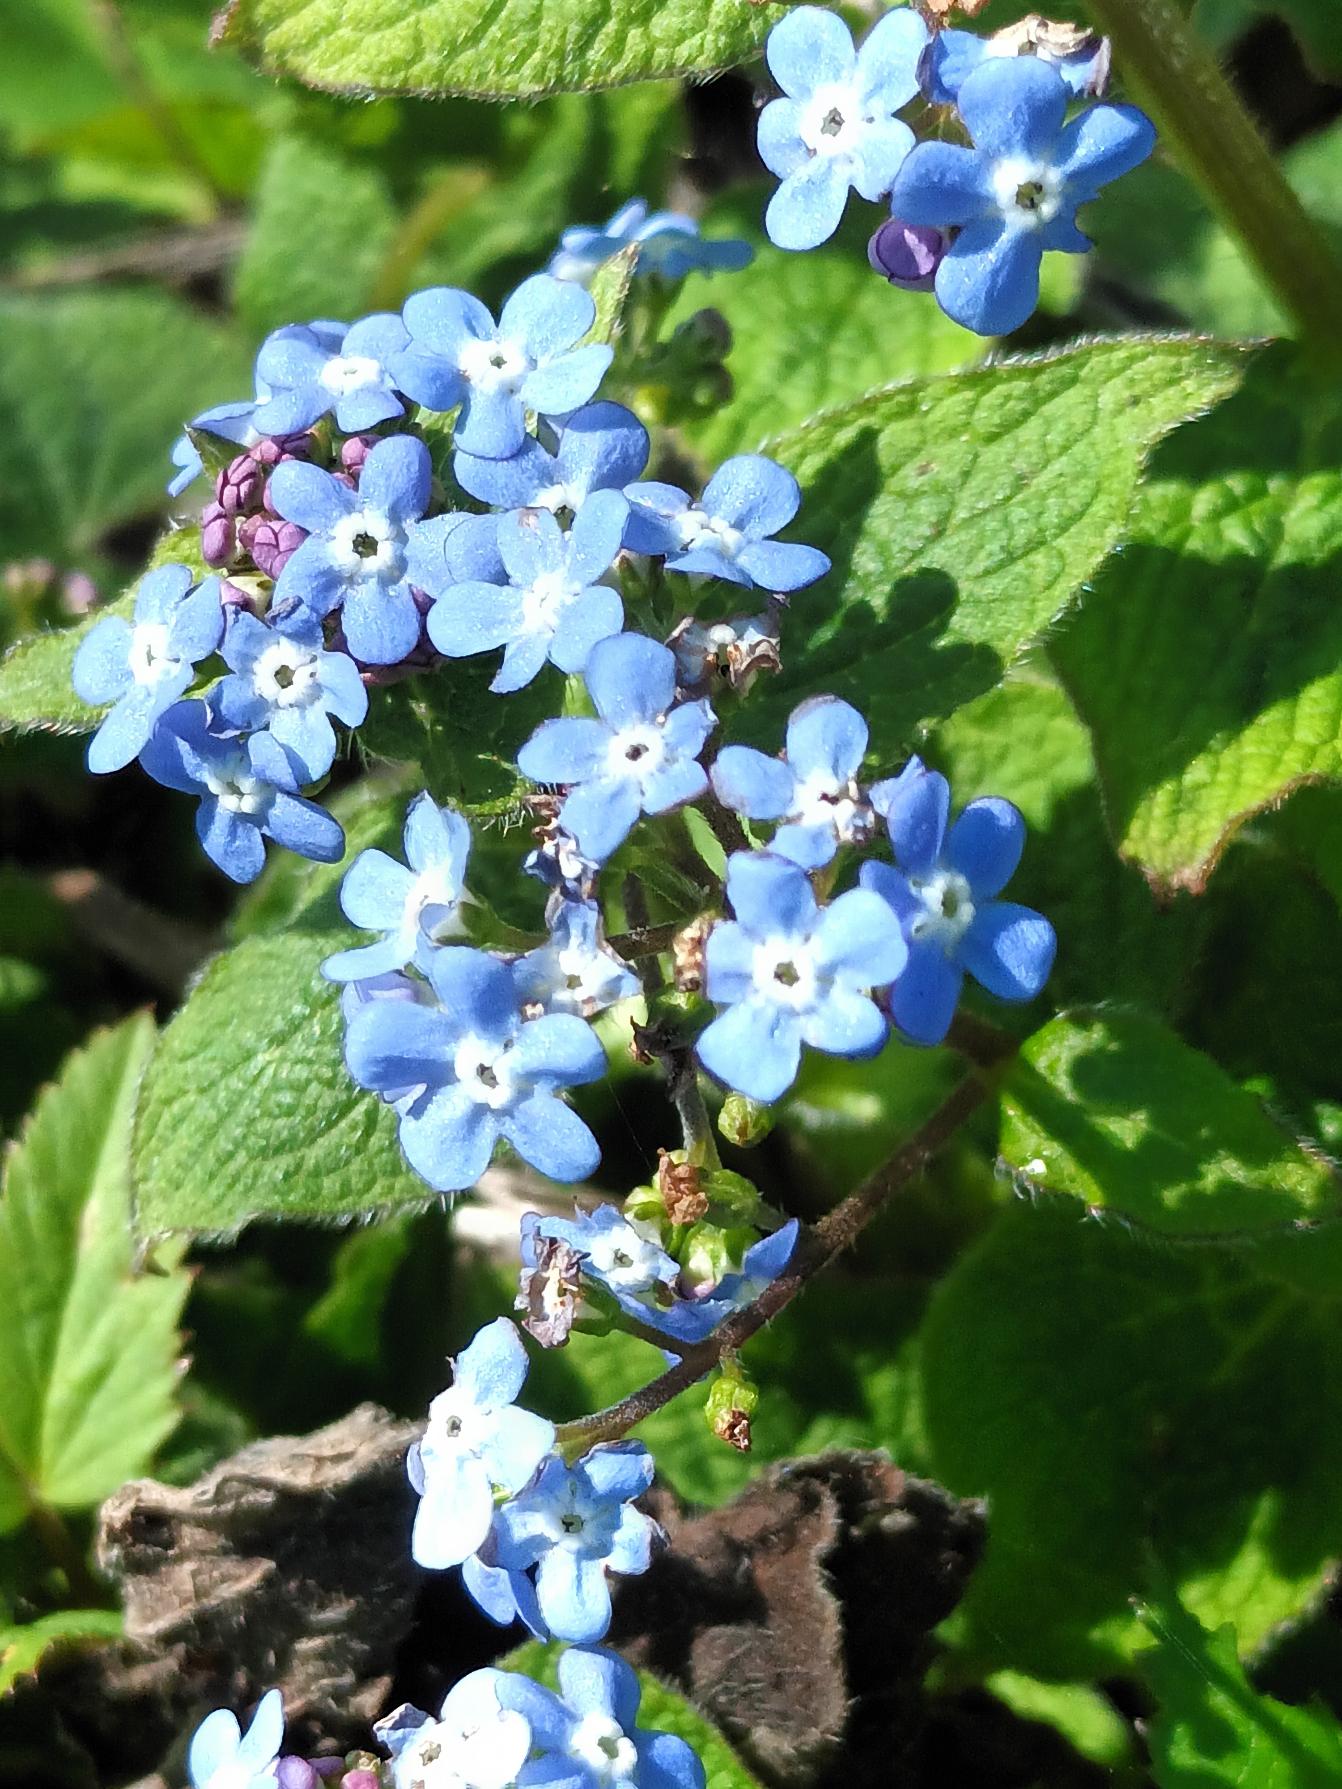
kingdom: Plantae
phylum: Tracheophyta
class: Magnoliopsida
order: Boraginales
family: Boraginaceae
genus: Brunnera
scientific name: Brunnera macrophylla
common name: Kærmindesøster
